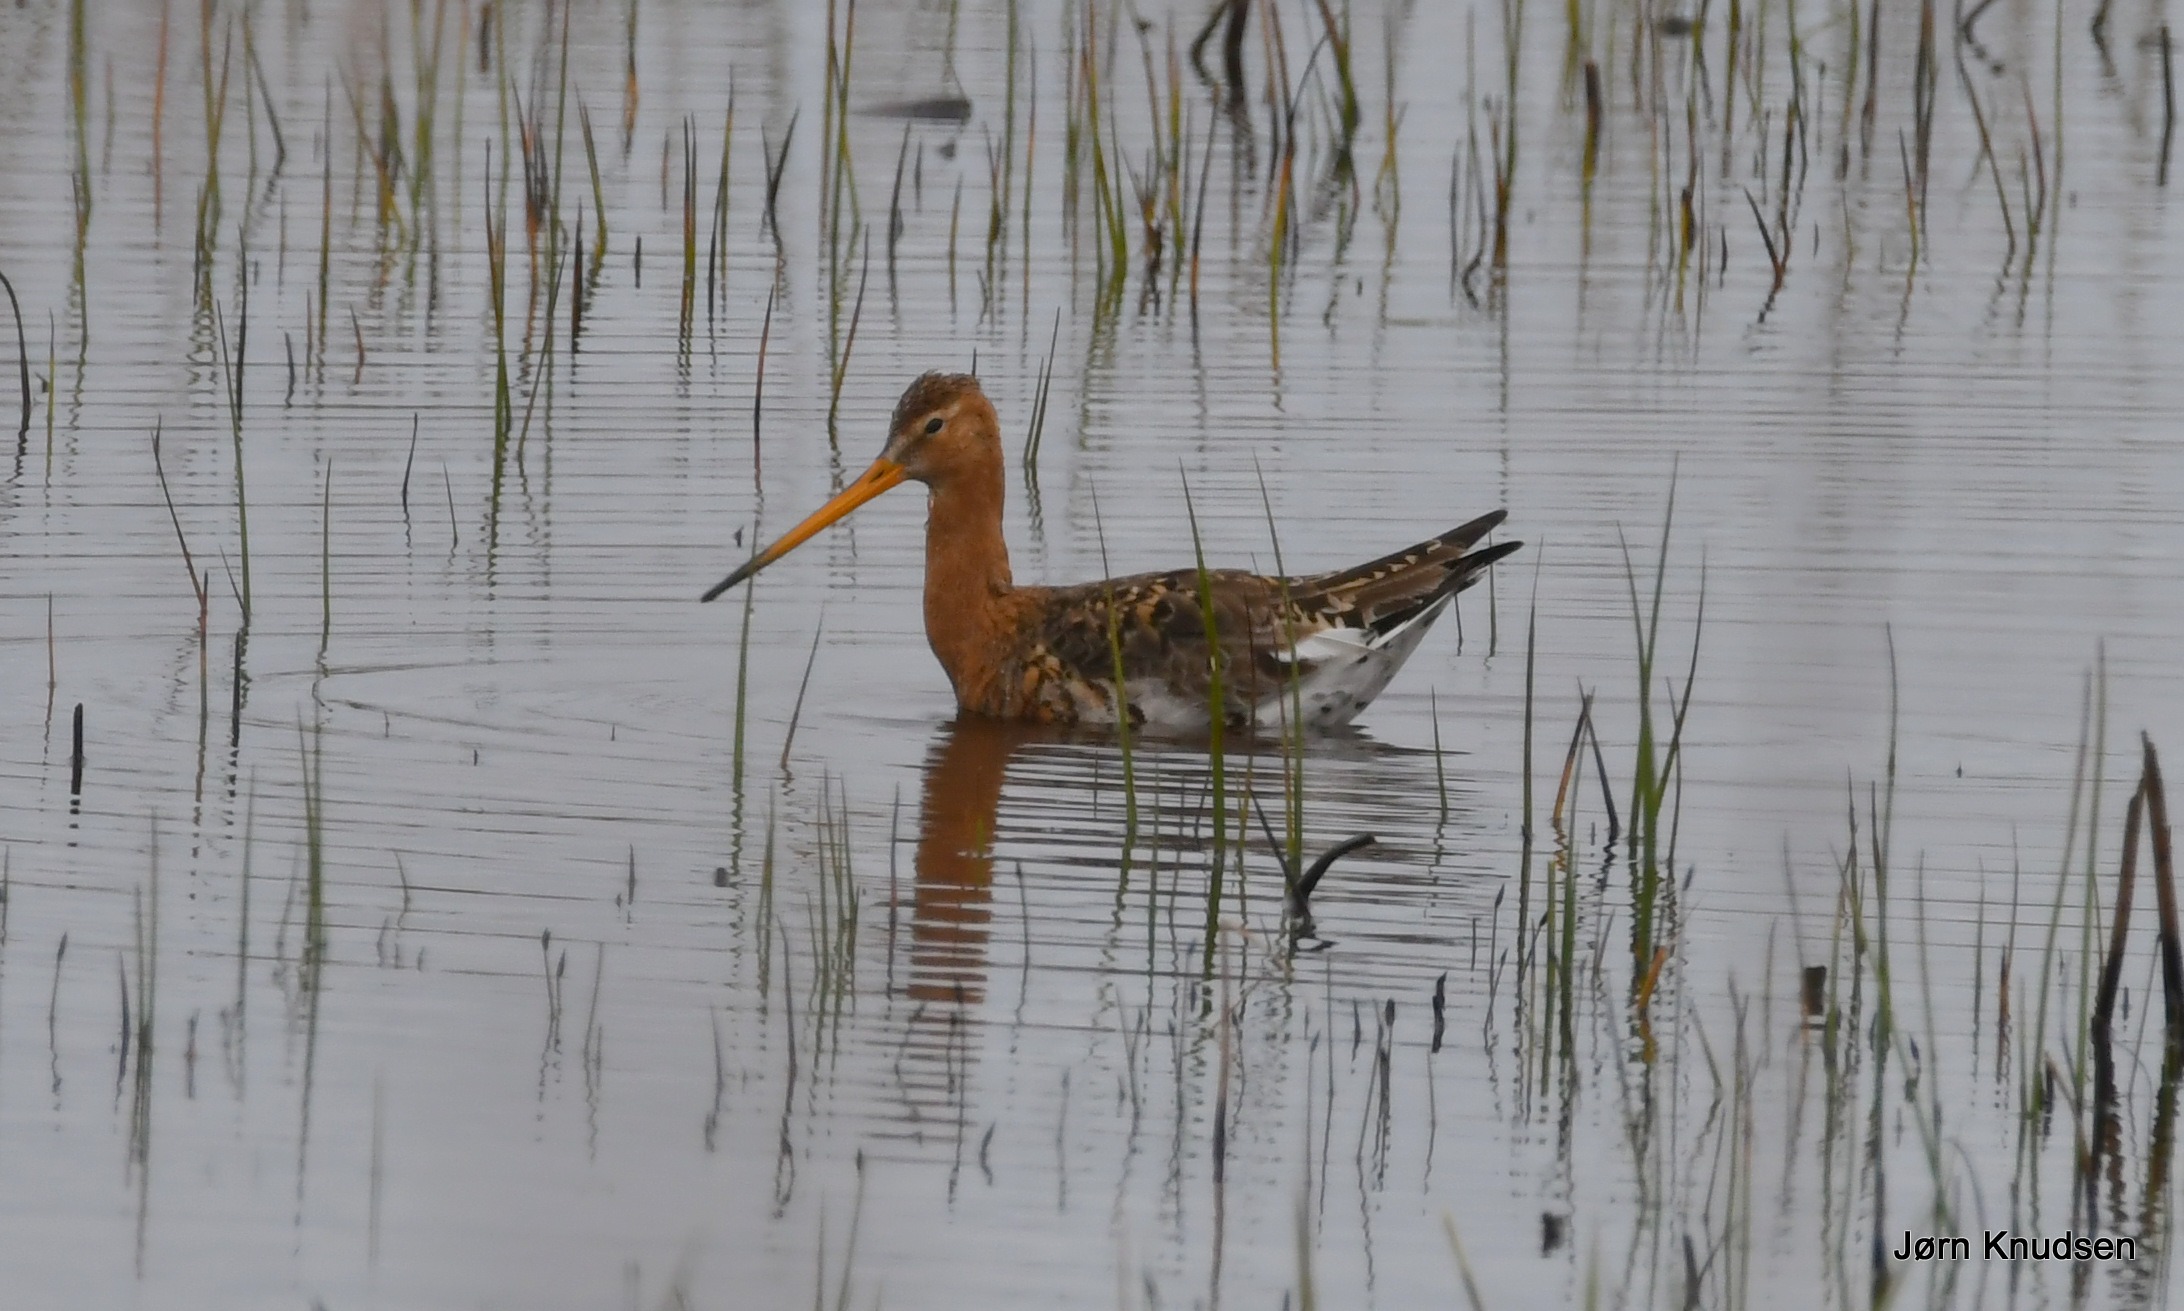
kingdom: Animalia
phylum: Chordata
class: Aves
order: Charadriiformes
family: Scolopacidae
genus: Limosa
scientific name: Limosa limosa
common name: Stor kobbersneppe
